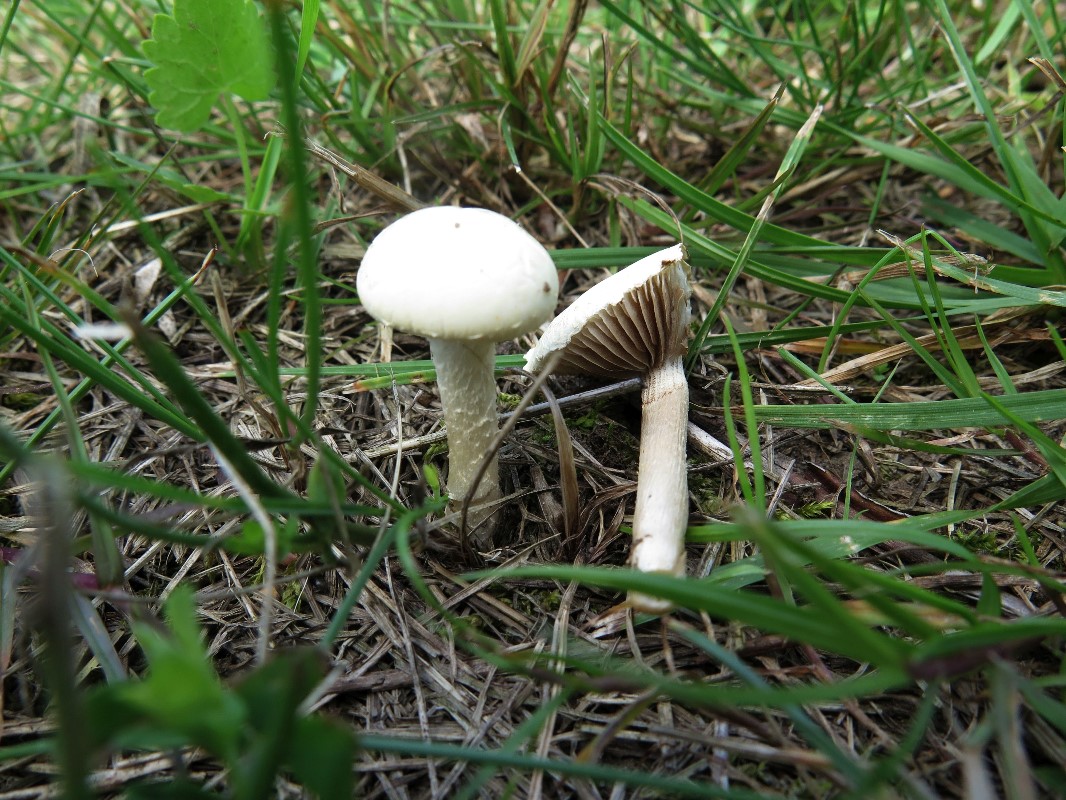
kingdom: Fungi
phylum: Basidiomycota
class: Agaricomycetes
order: Agaricales
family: Strophariaceae
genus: Agrocybe
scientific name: Agrocybe dura
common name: fastkødet agerhat
